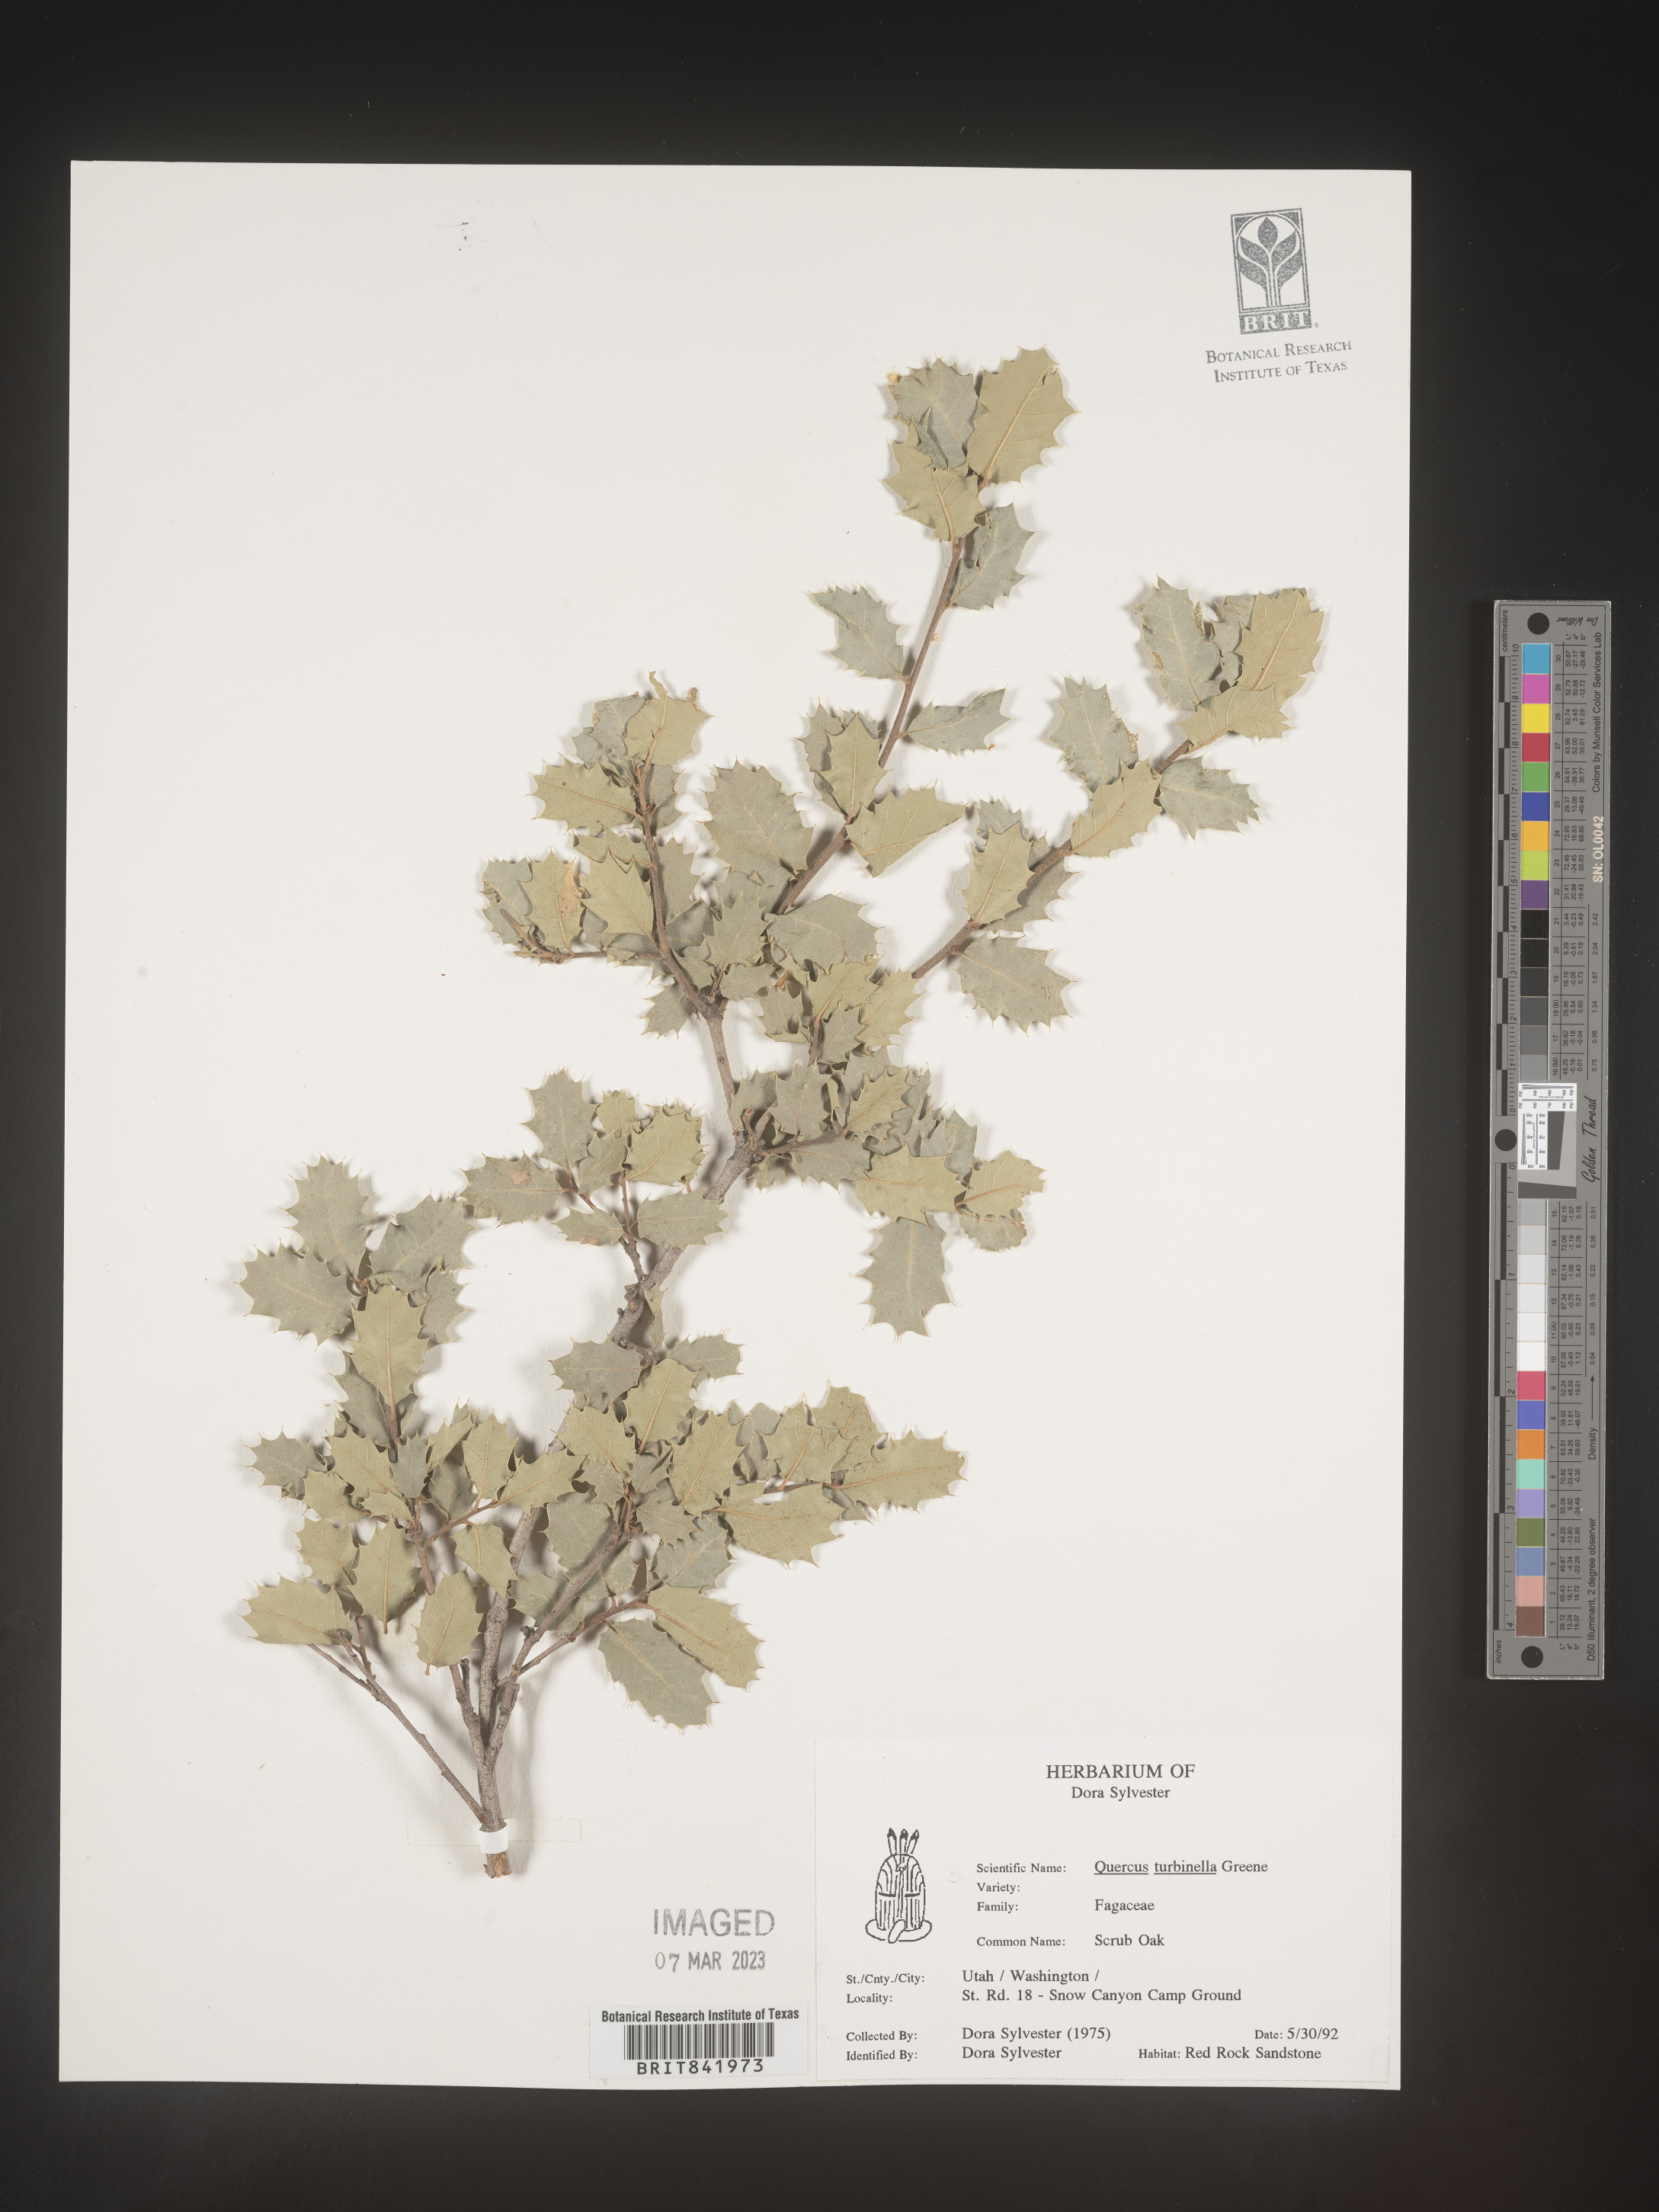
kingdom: Plantae
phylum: Tracheophyta
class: Magnoliopsida
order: Fagales
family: Fagaceae
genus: Quercus
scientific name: Quercus turbinella
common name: Sonoran scrub oak
